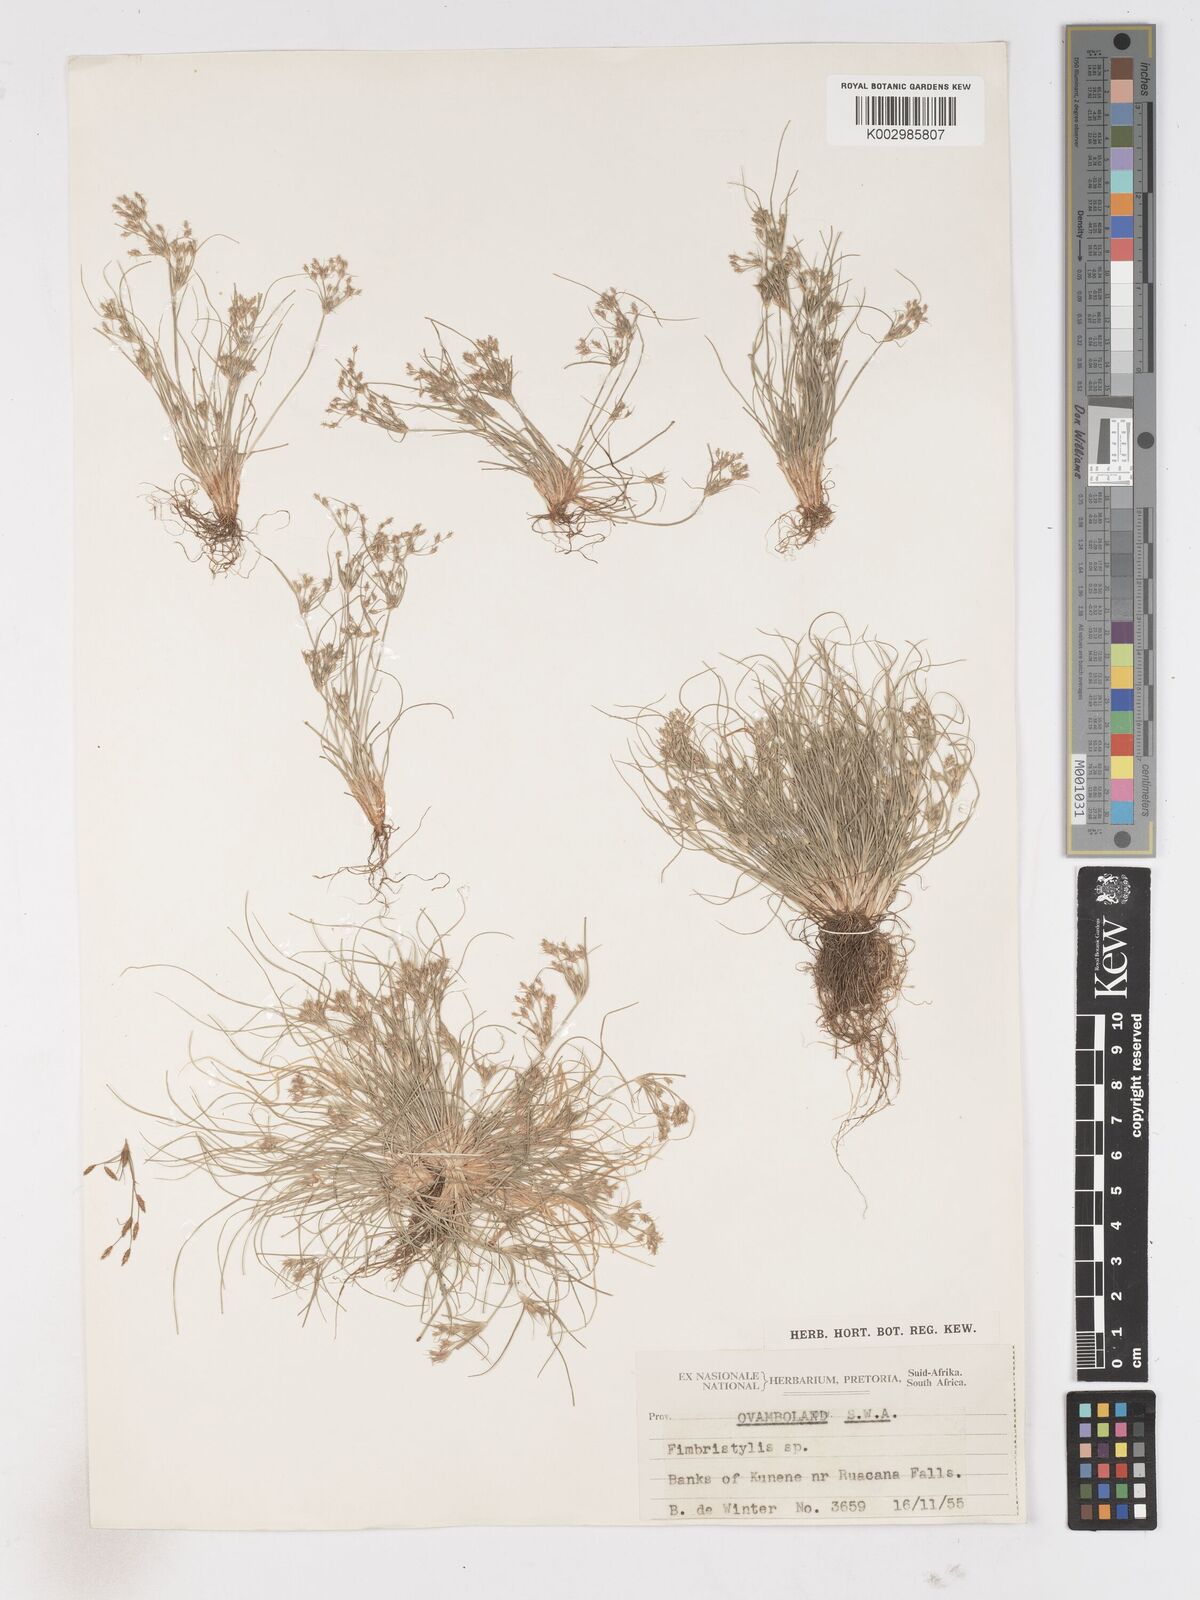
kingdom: Plantae
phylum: Tracheophyta
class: Liliopsida
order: Poales
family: Cyperaceae
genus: Fimbristylis
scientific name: Fimbristylis squarrosa
